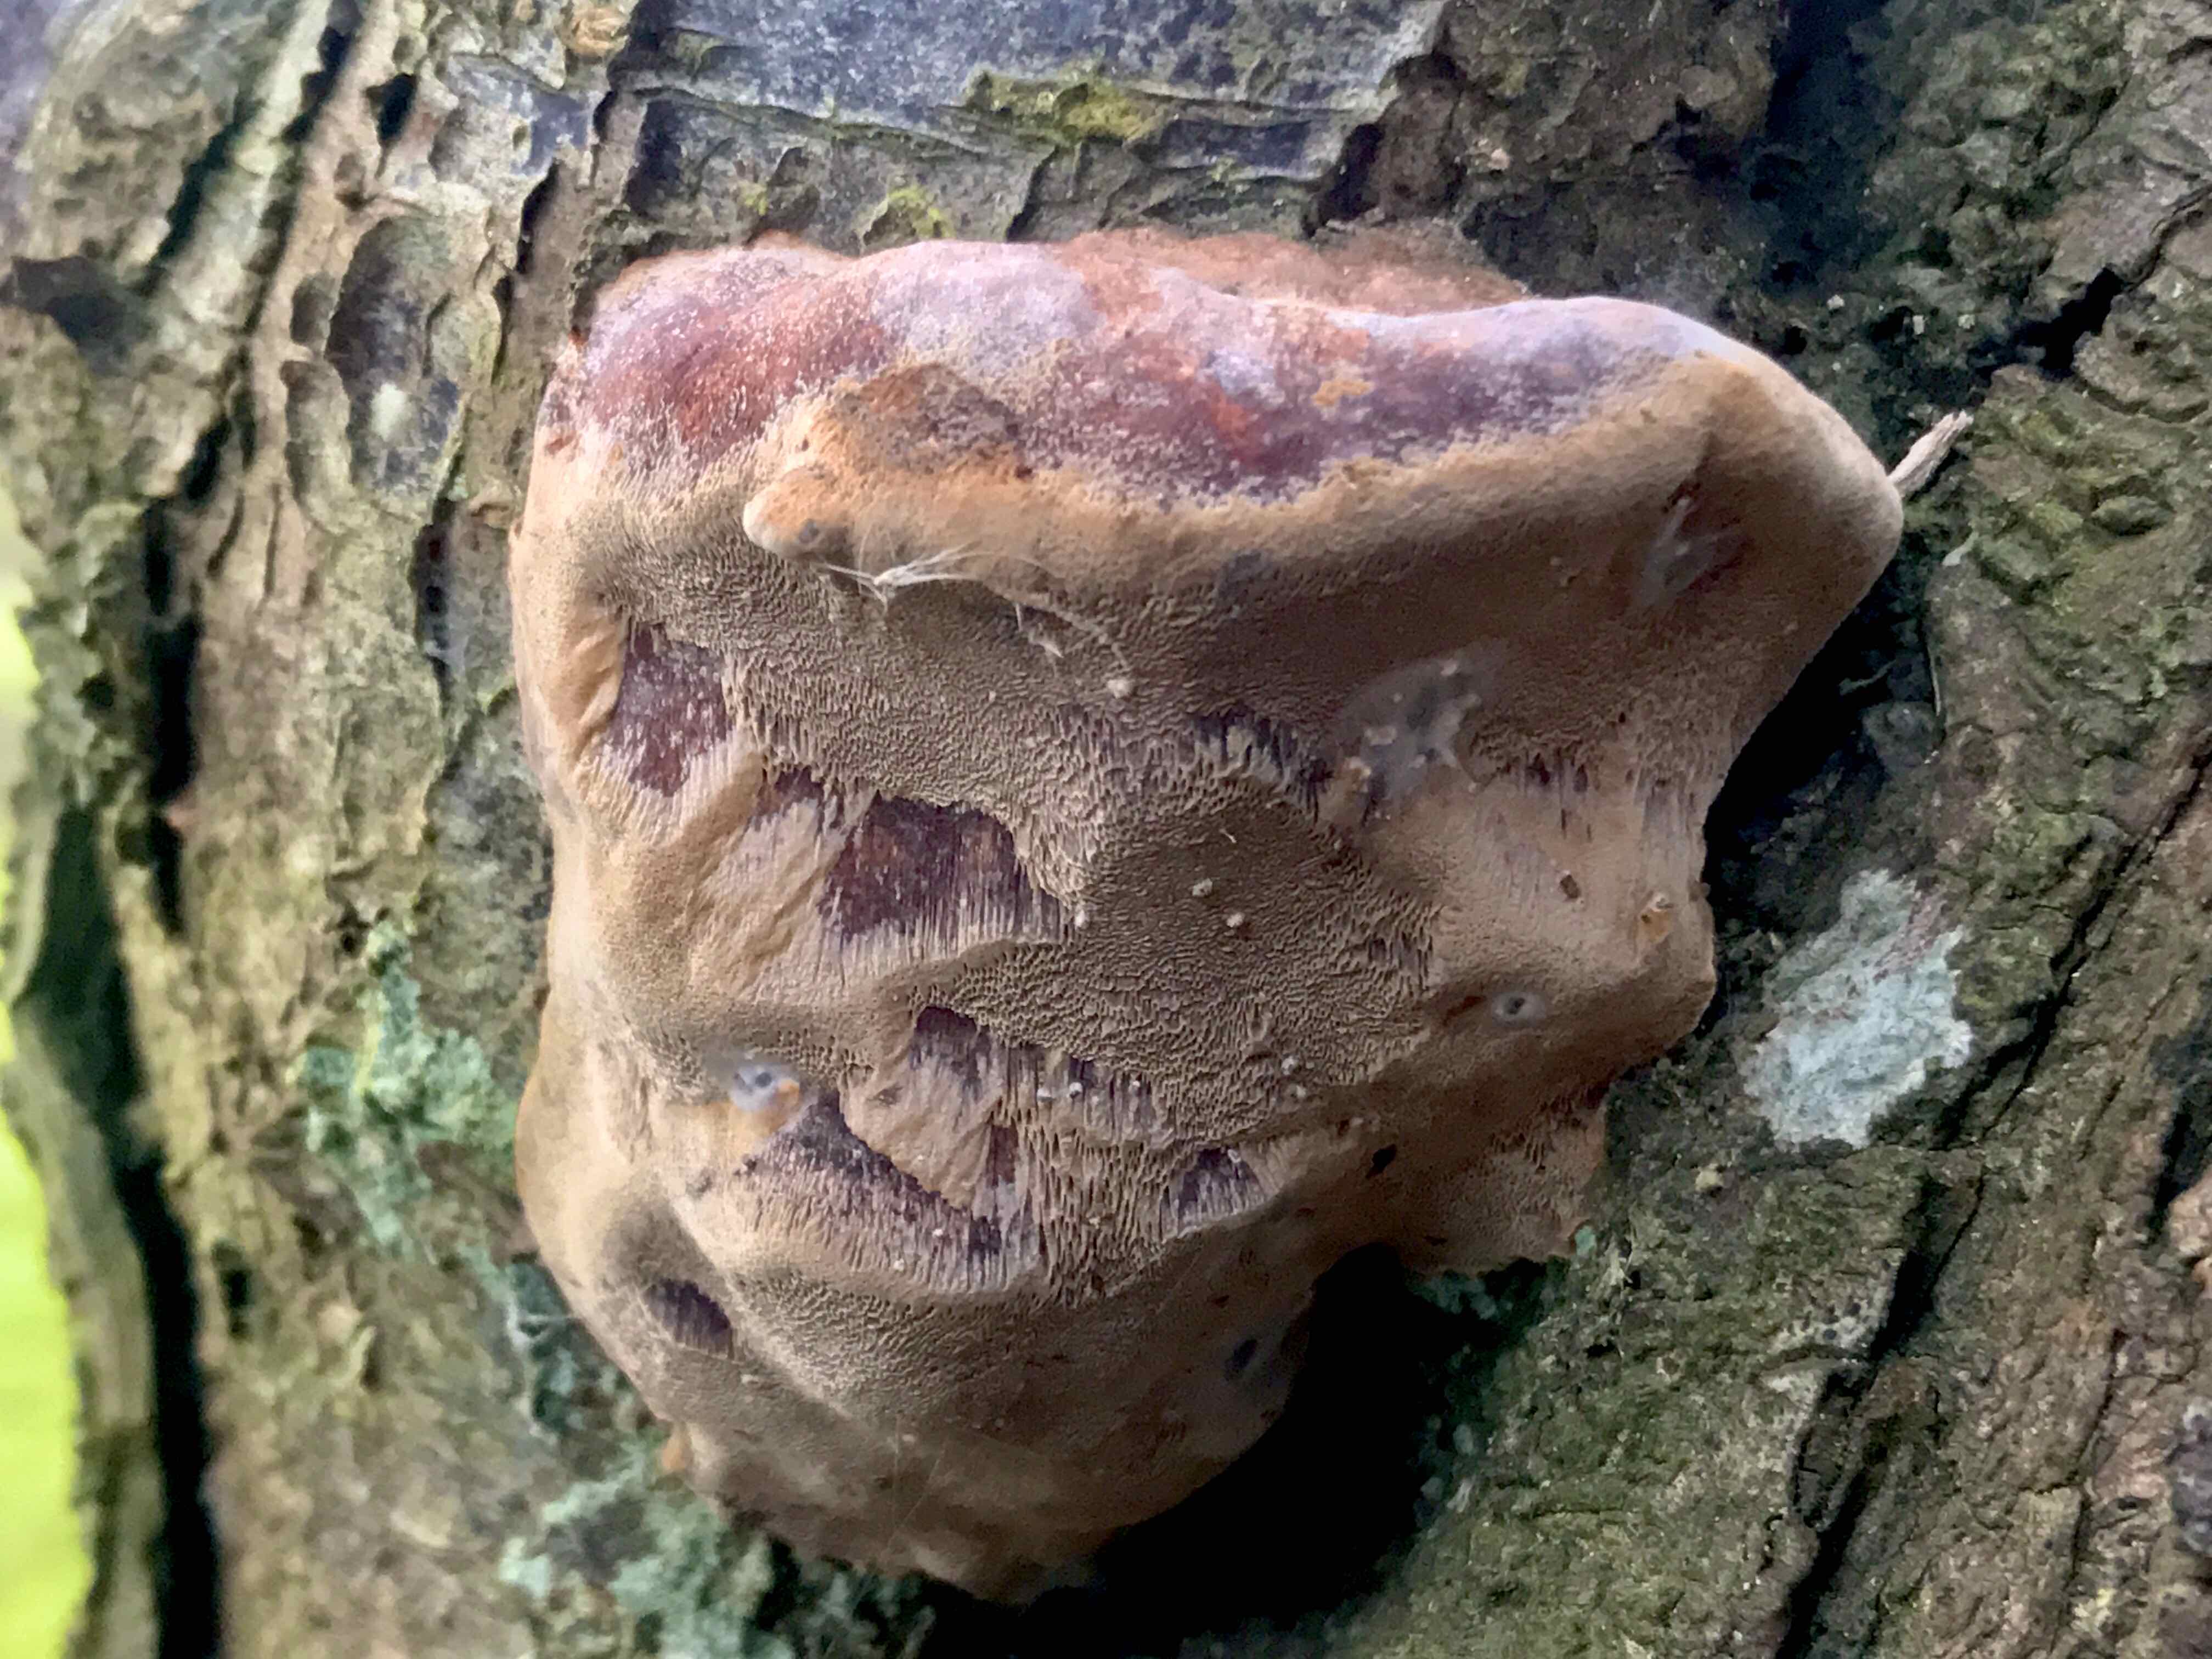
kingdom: Fungi
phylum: Basidiomycota
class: Agaricomycetes
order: Hymenochaetales
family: Hymenochaetaceae
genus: Phellinus
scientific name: Phellinus pomaceus
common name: blomme-ildporesvamp
